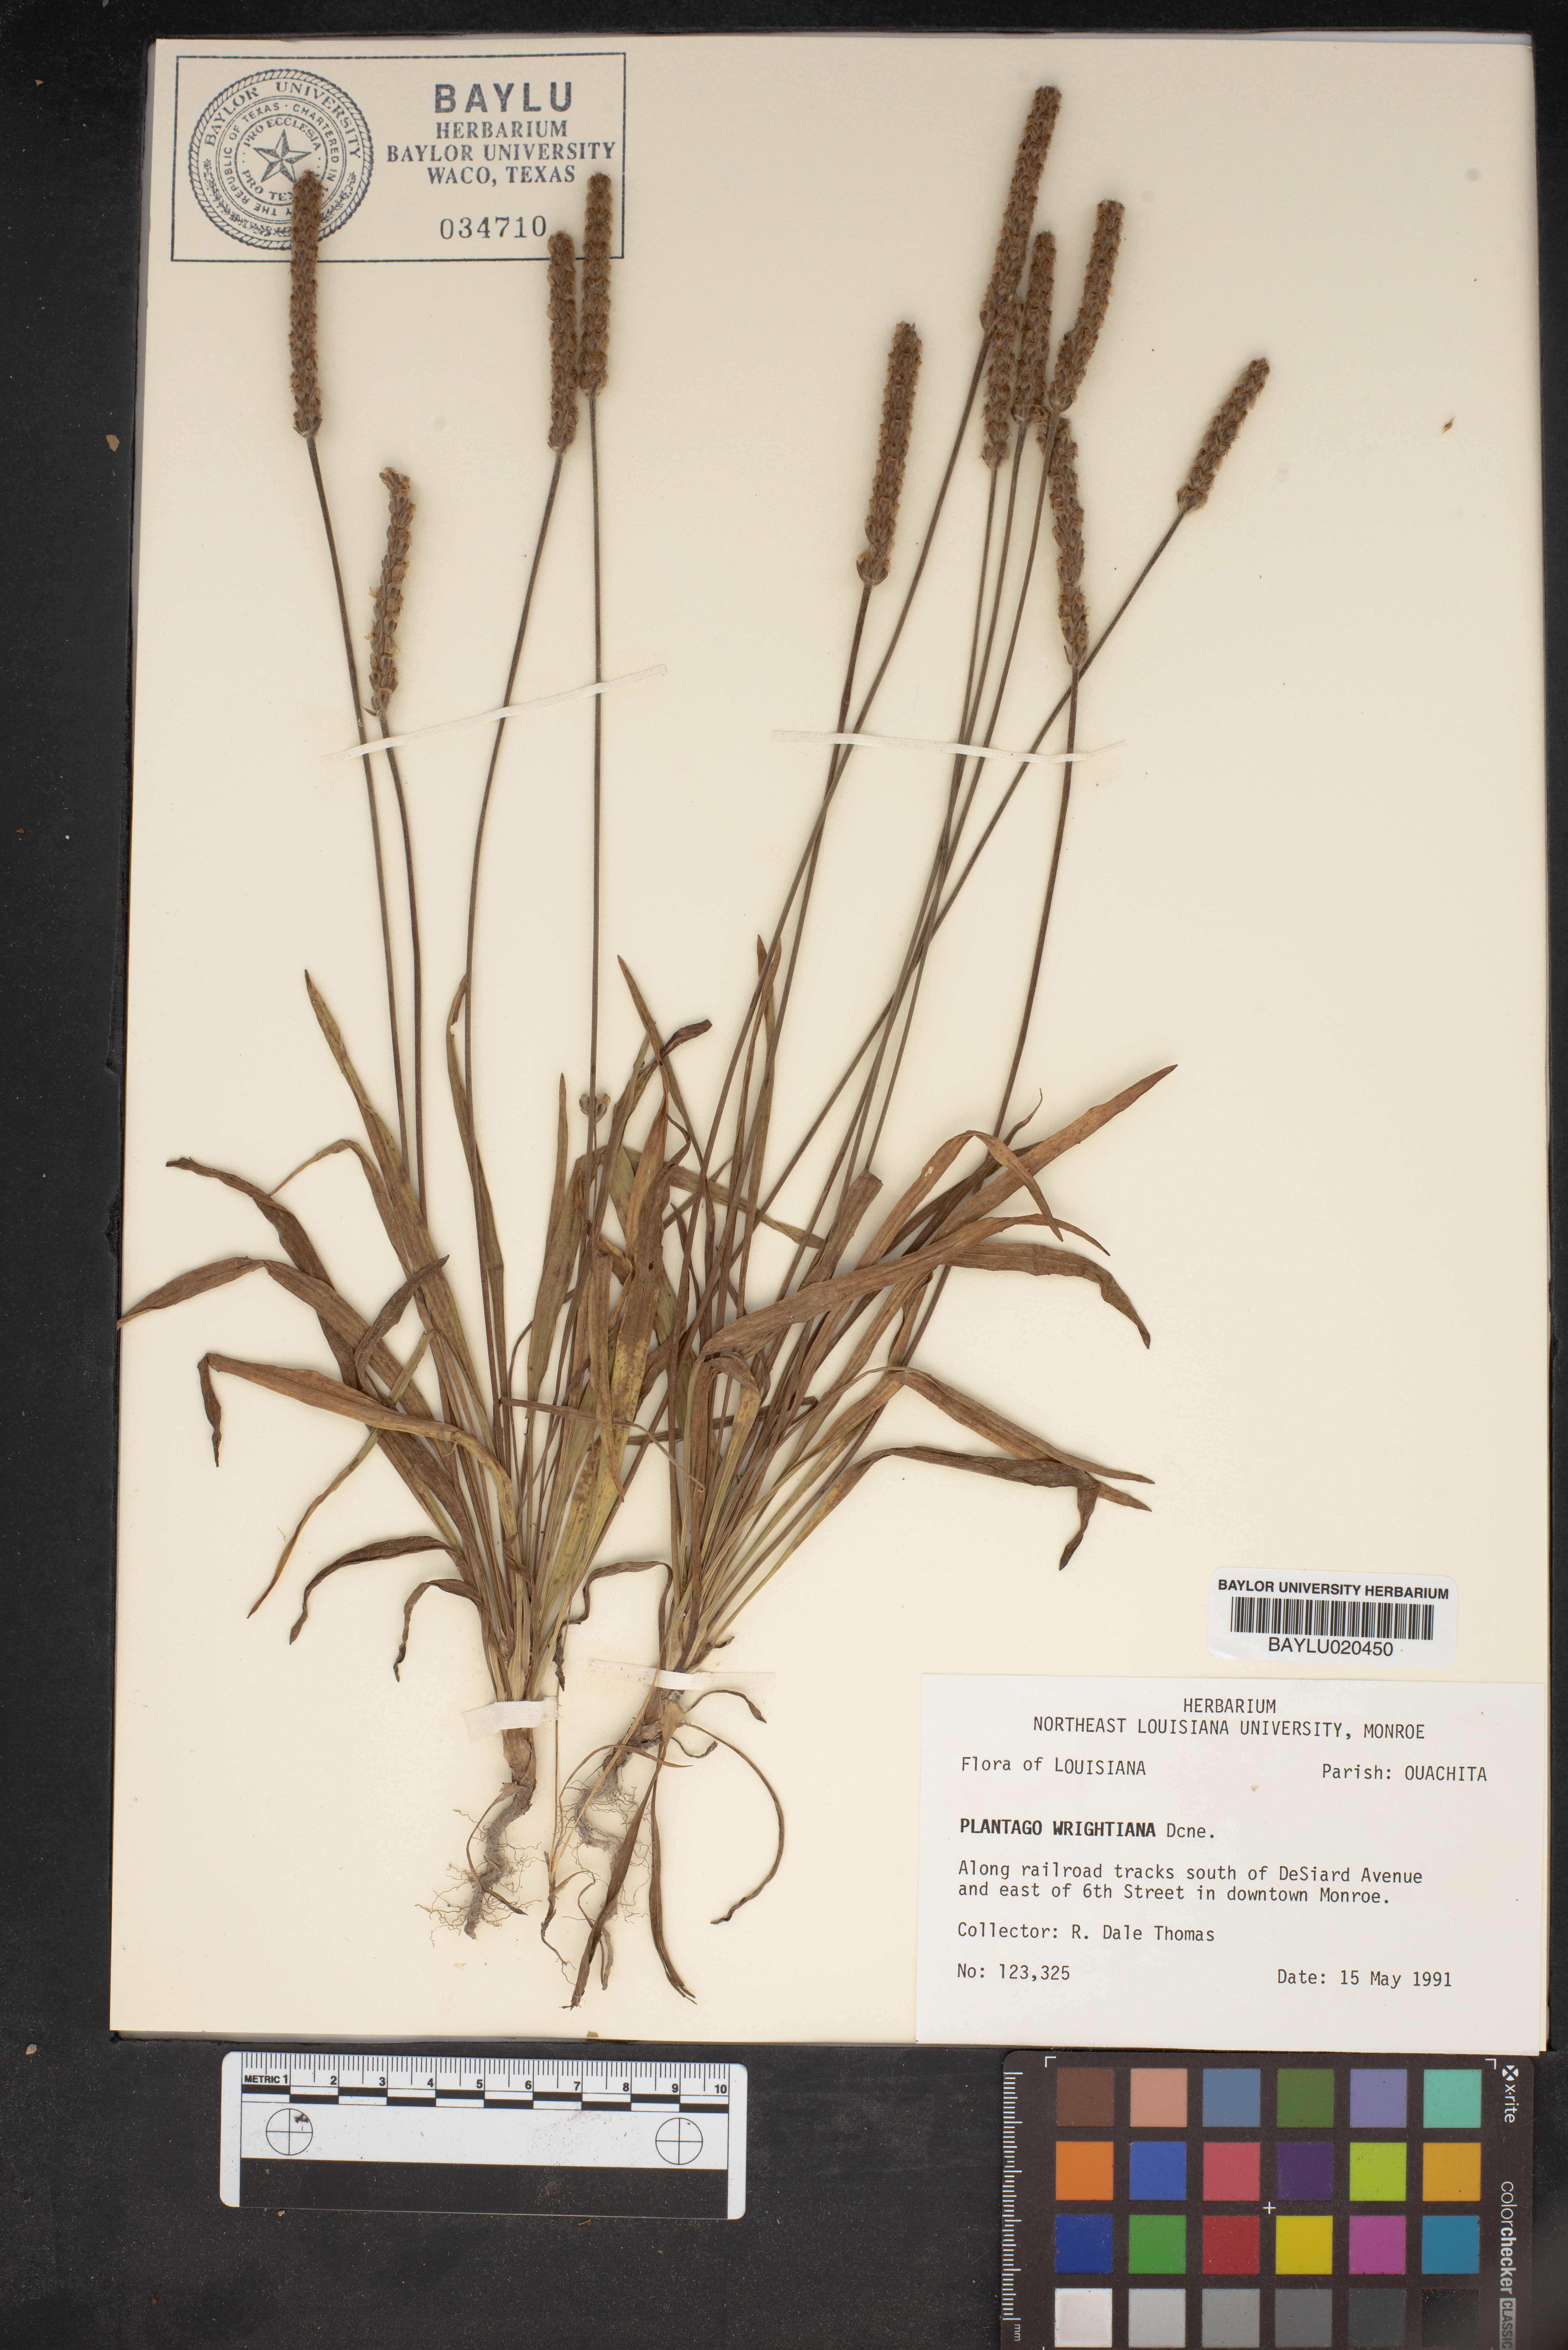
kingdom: Plantae
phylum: Tracheophyta
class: Magnoliopsida
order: Lamiales
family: Plantaginaceae
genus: Plantago
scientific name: Plantago wrightiana
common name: Wright's plantain
